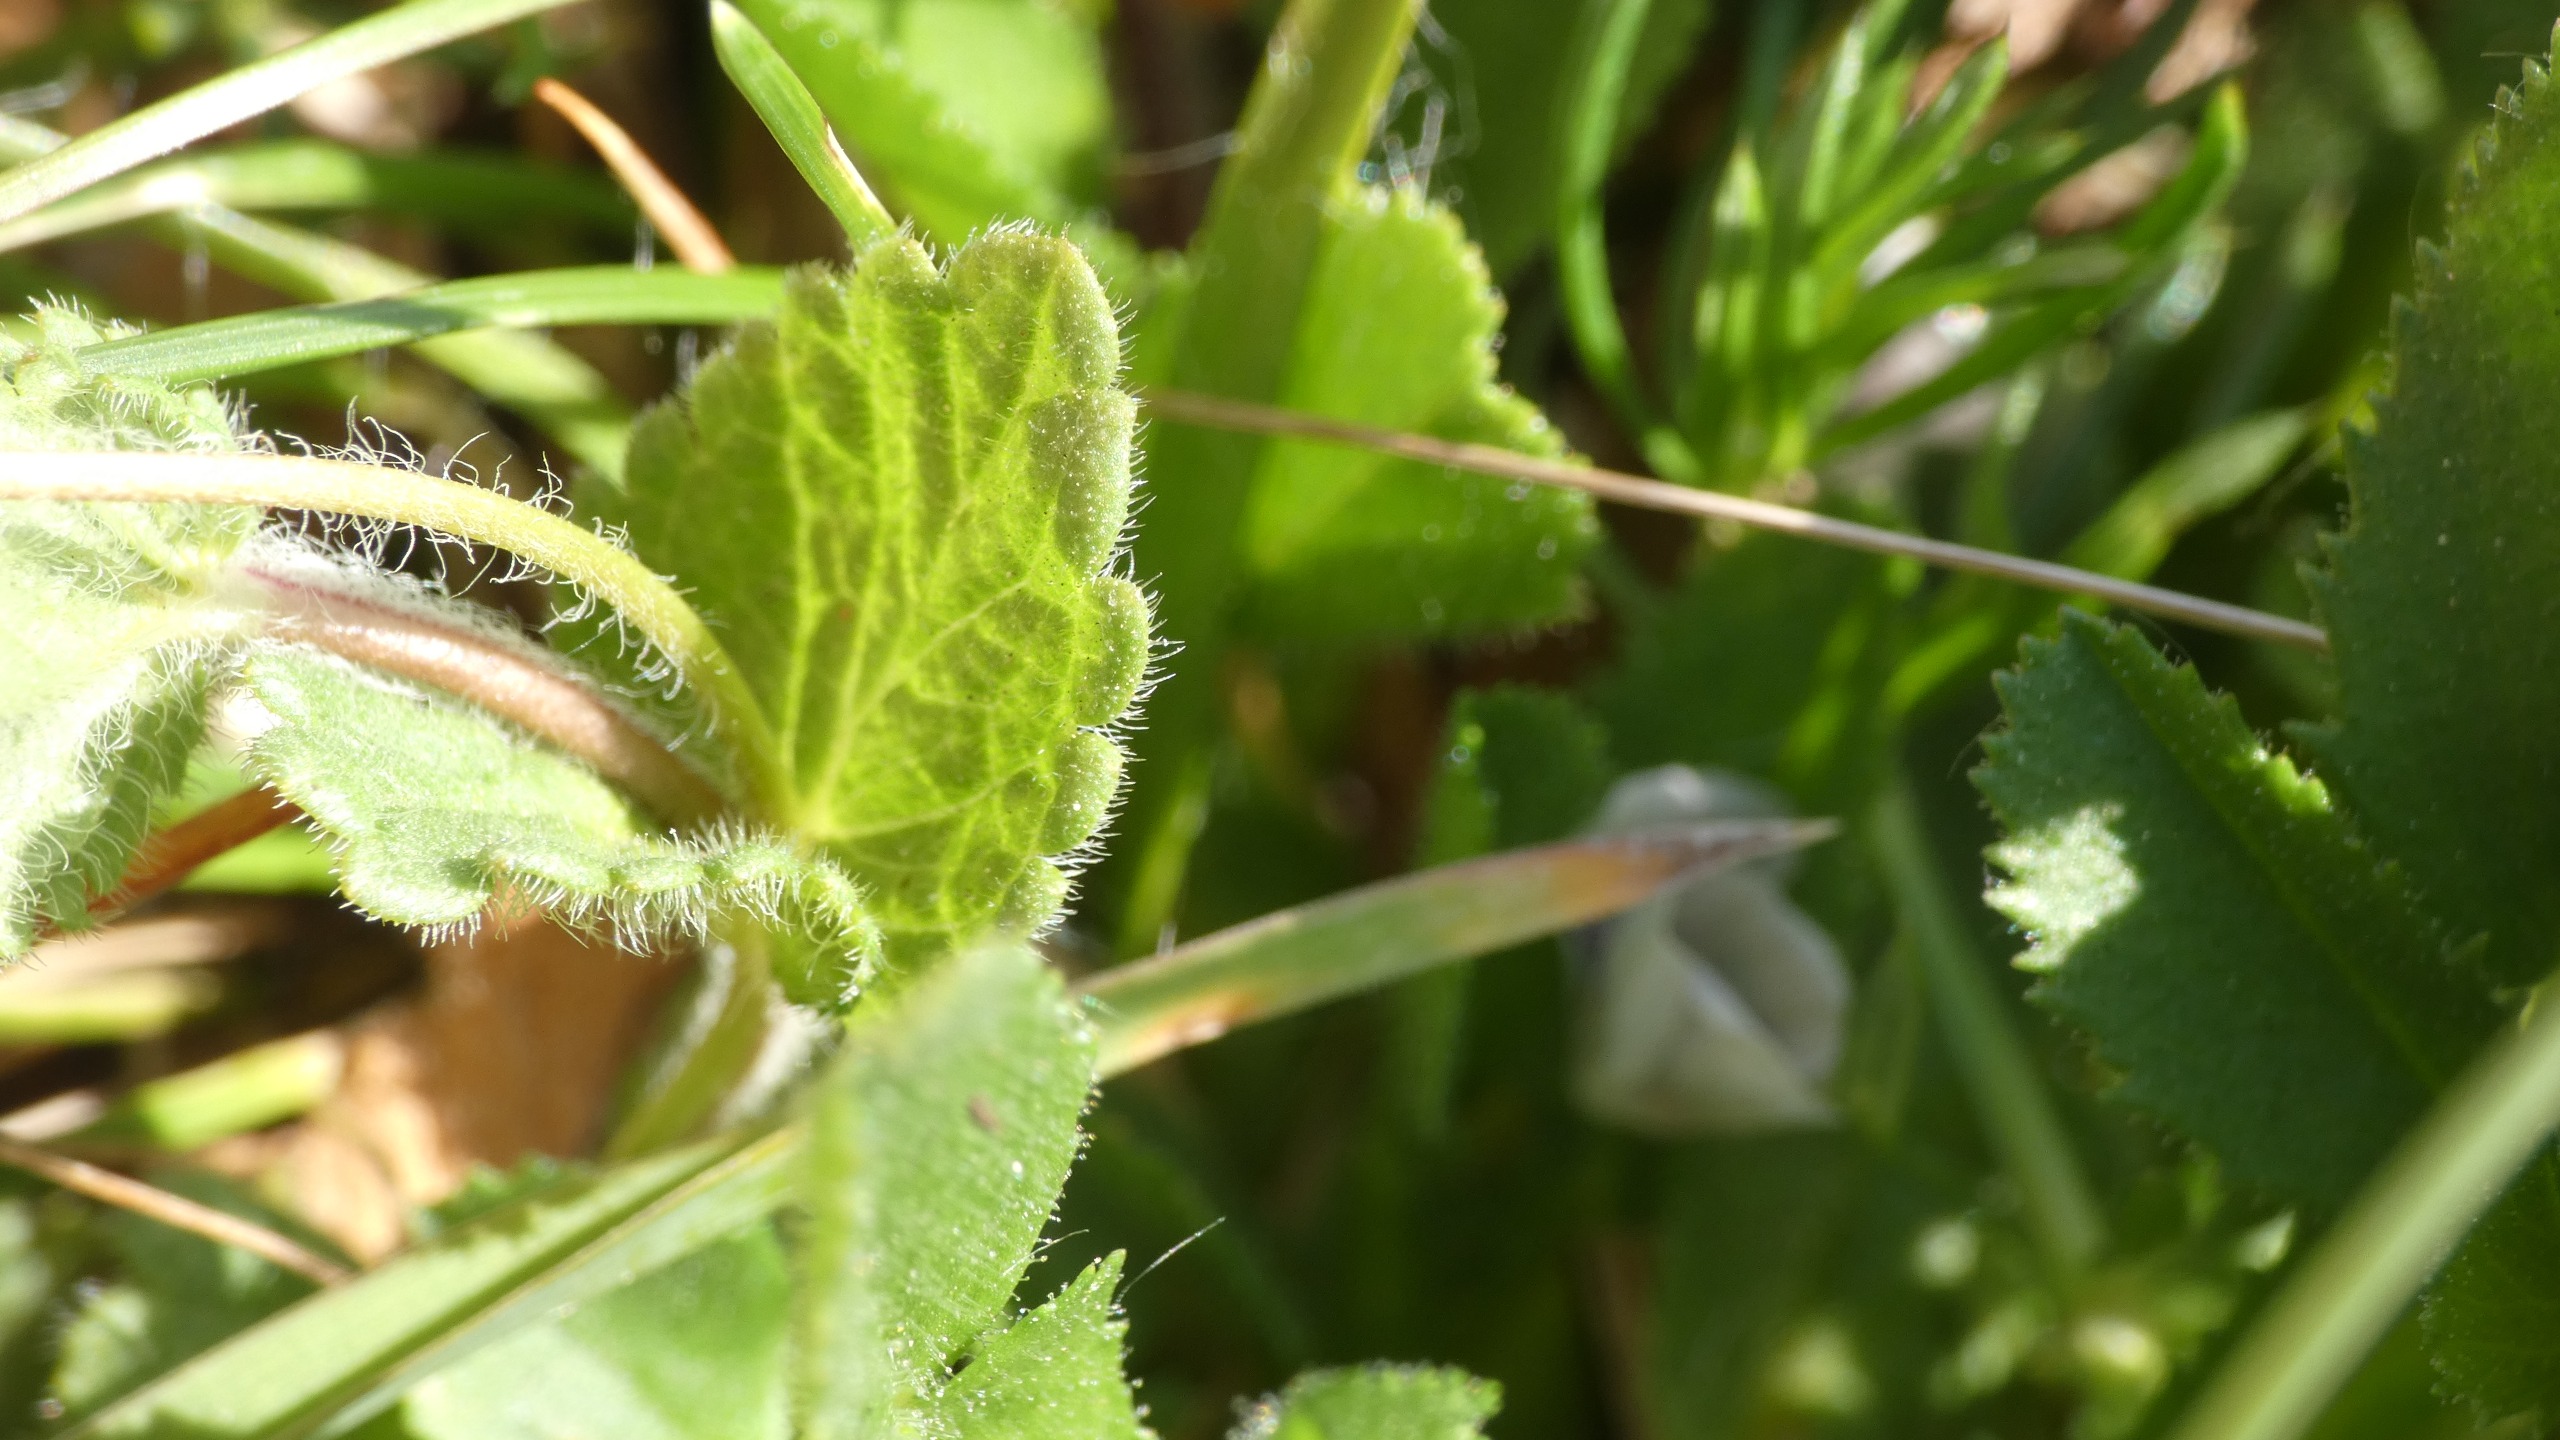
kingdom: Plantae
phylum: Tracheophyta
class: Magnoliopsida
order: Lamiales
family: Plantaginaceae
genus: Veronica
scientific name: Veronica chamaedrys
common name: Tveskægget ærenpris
